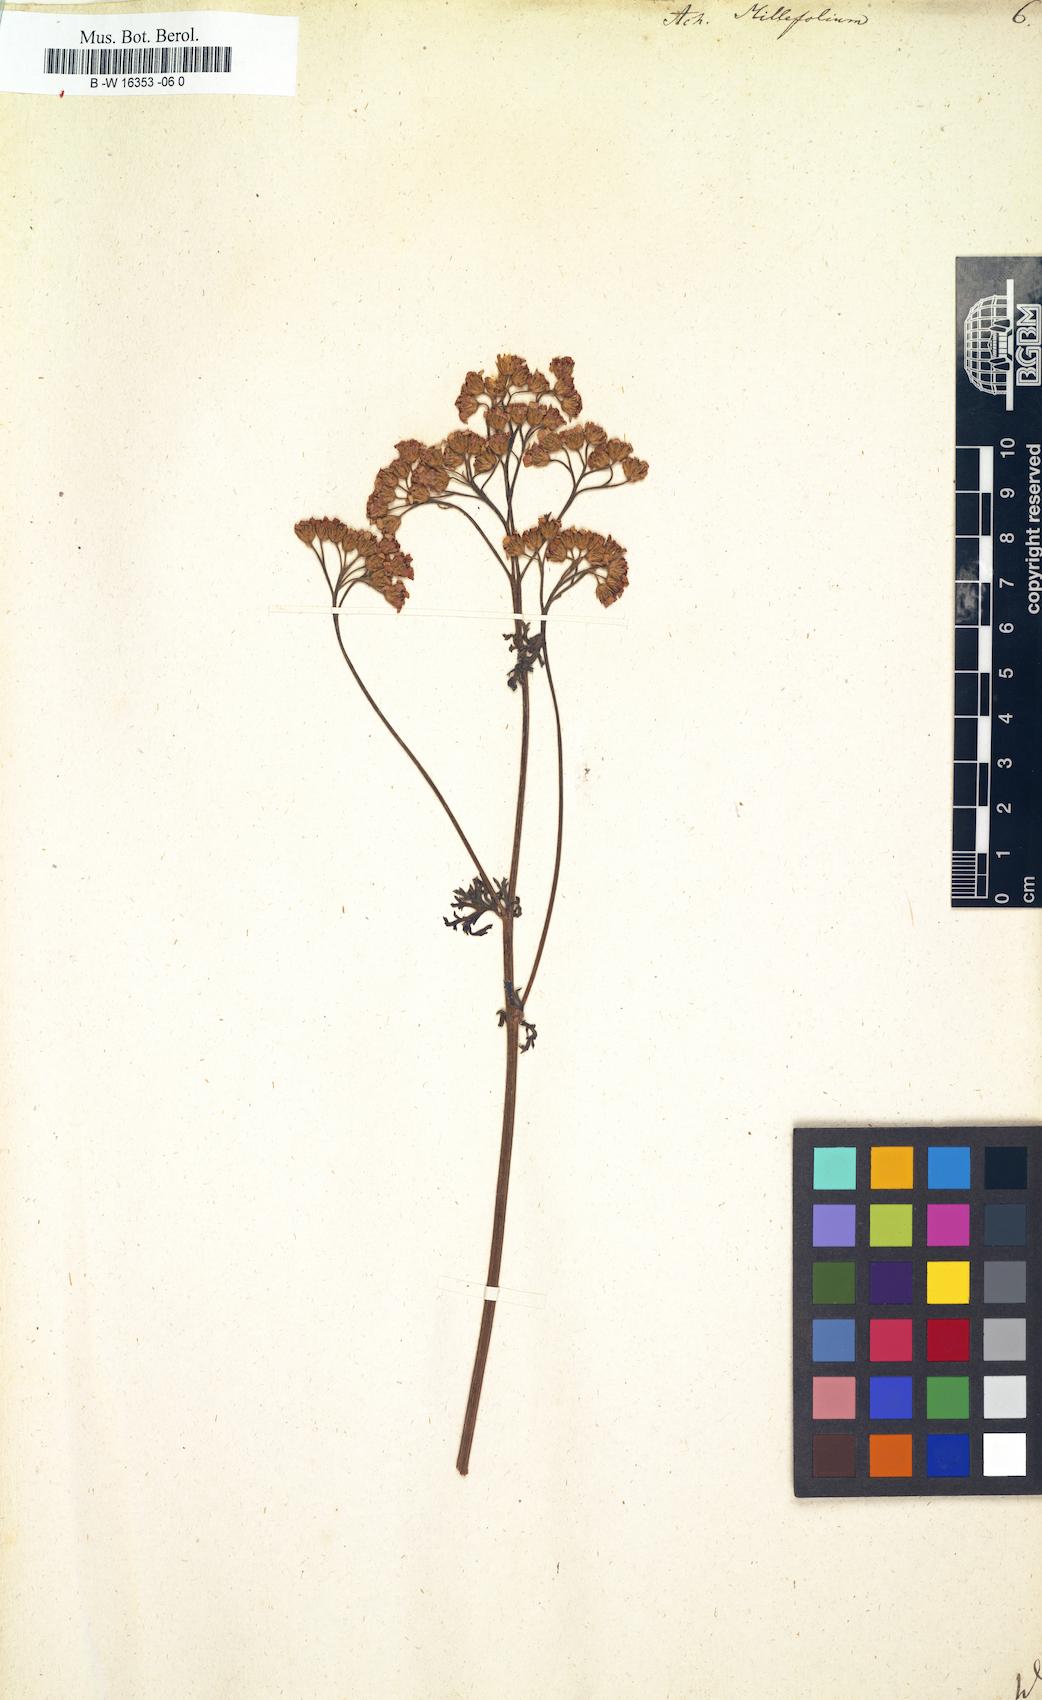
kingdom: Plantae
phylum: Tracheophyta
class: Magnoliopsida
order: Asterales
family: Asteraceae
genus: Achillea
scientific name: Achillea millefolium
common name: Yarrow
